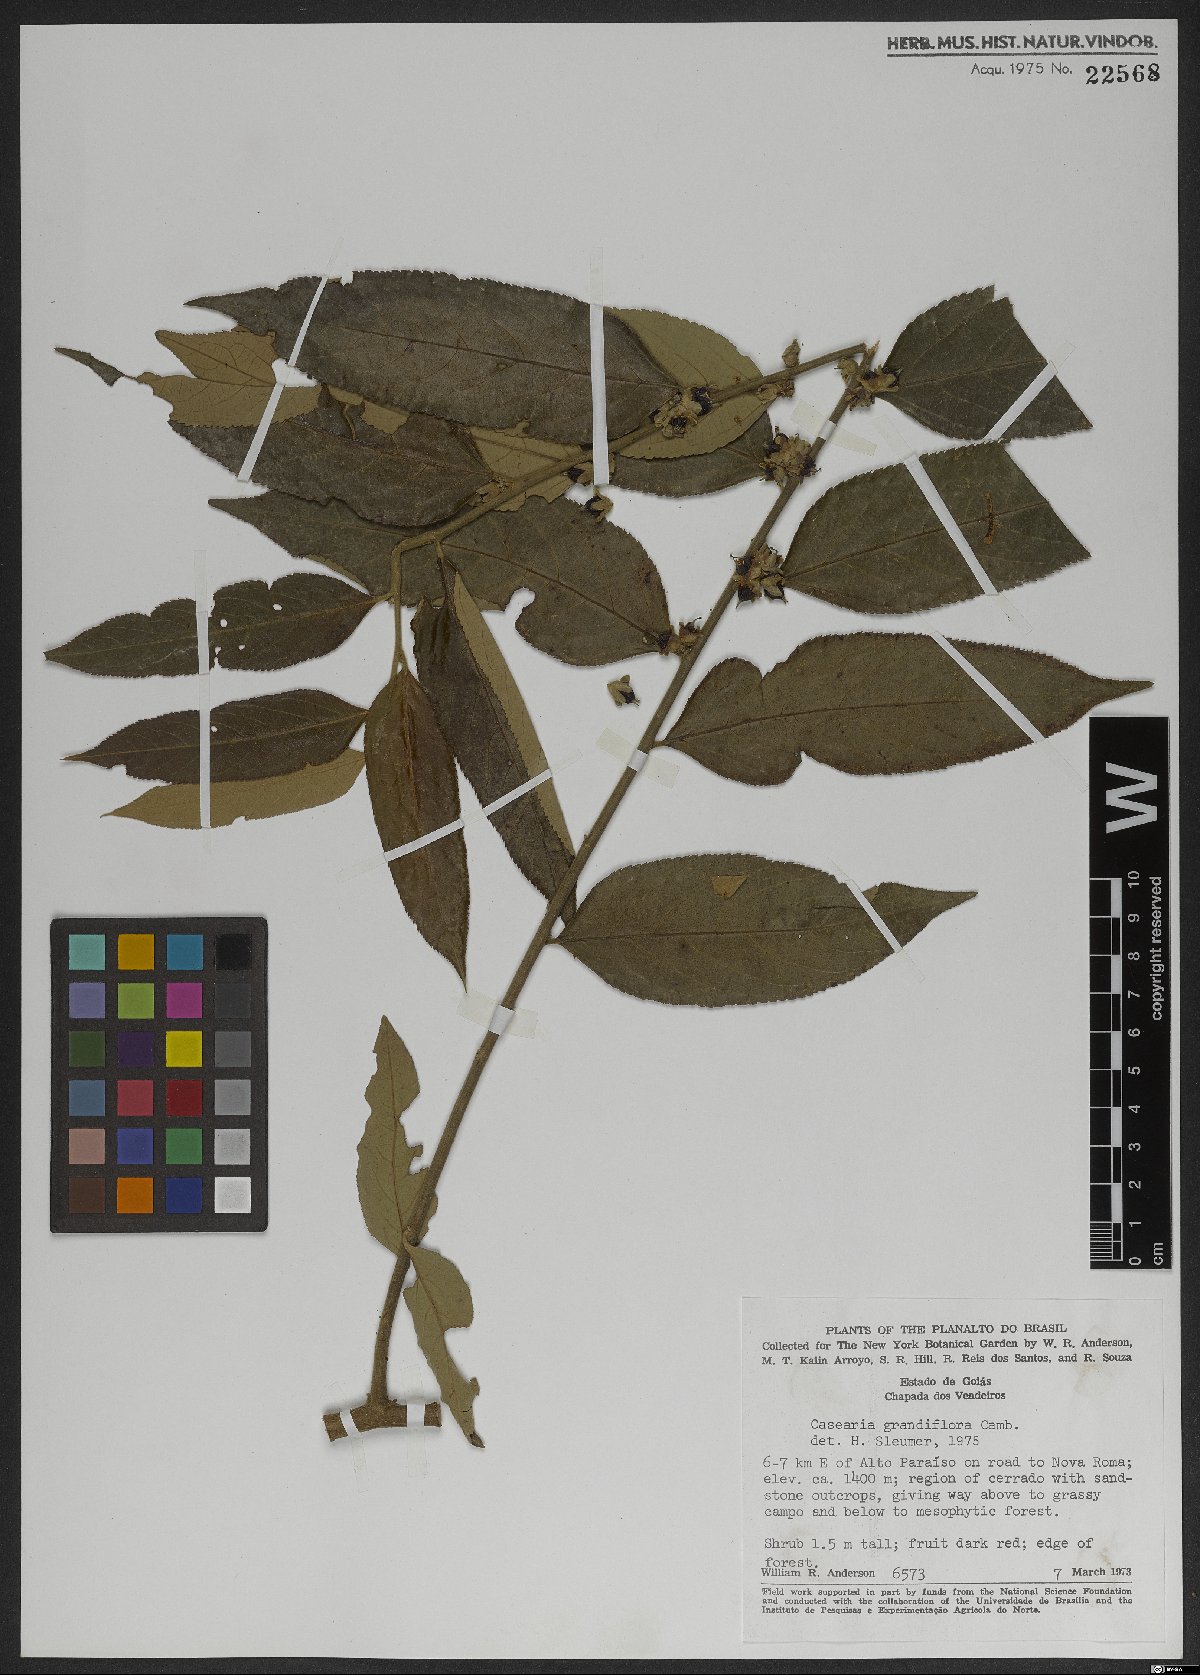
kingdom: Plantae
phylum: Tracheophyta
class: Magnoliopsida
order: Malpighiales
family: Salicaceae
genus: Casearia
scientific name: Casearia grandiflora
